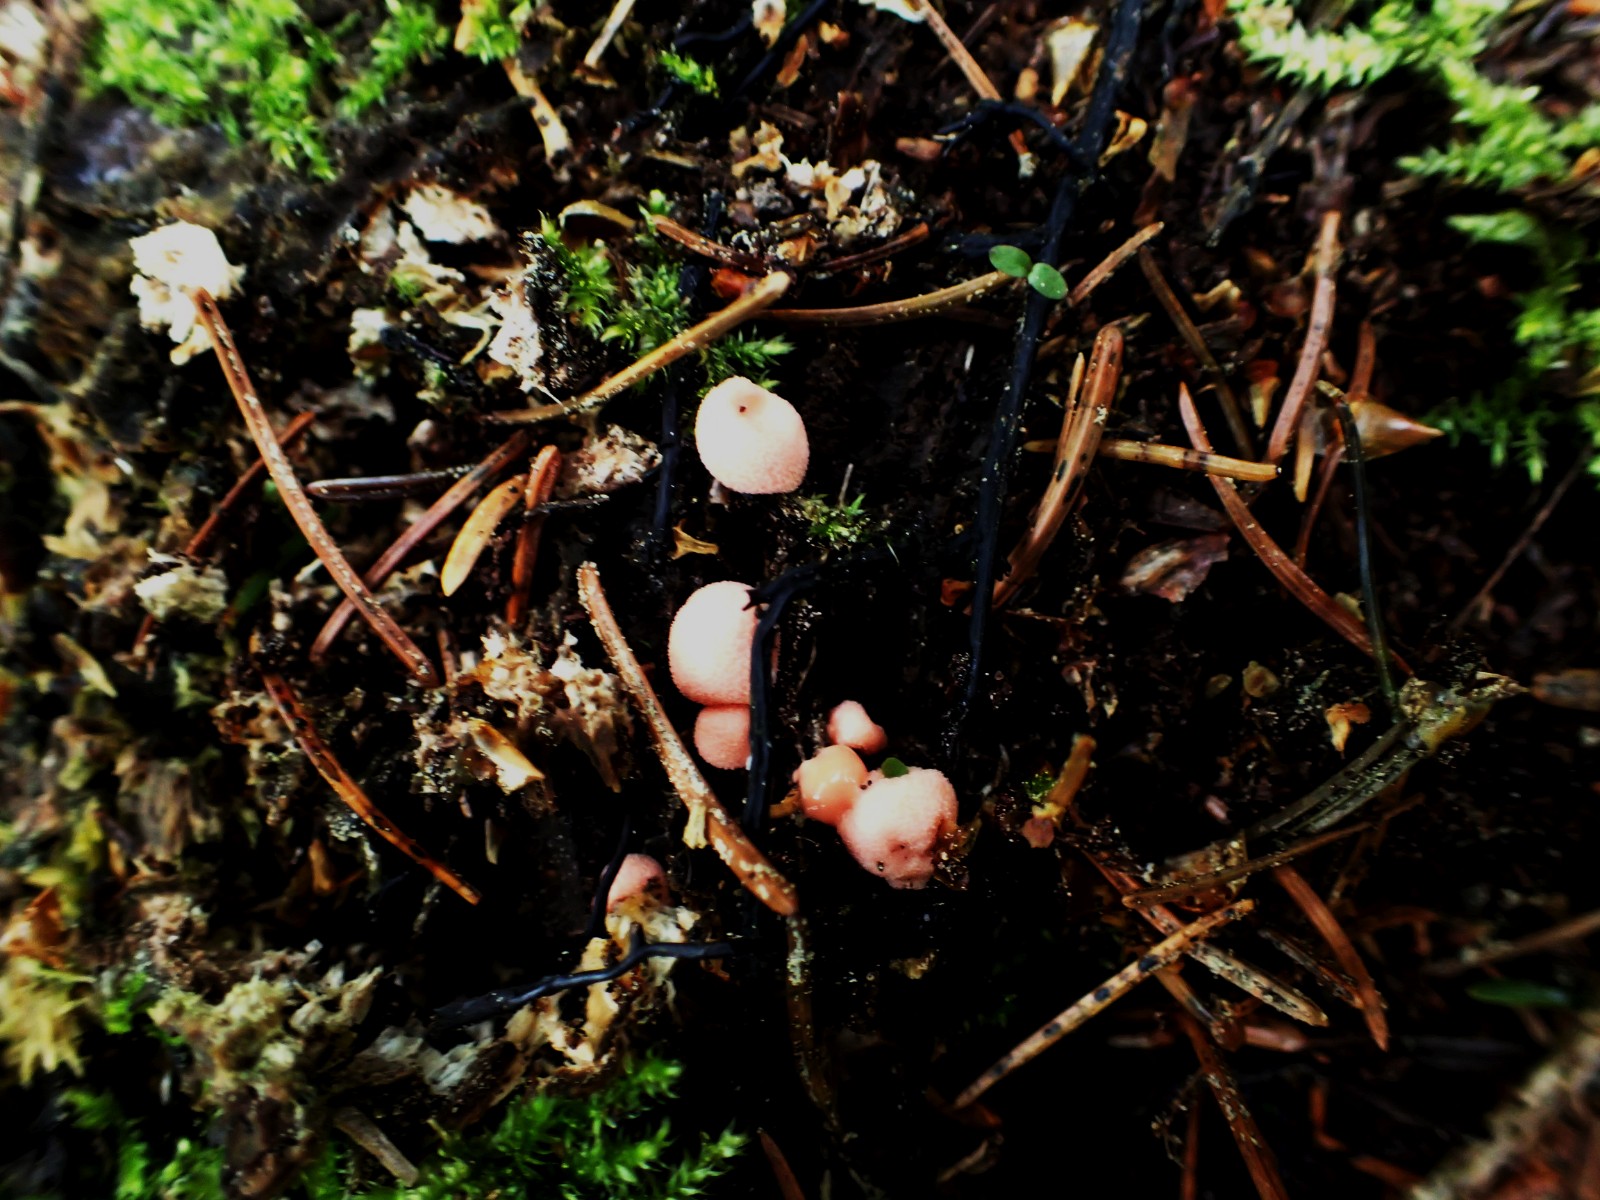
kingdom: Protozoa
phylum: Mycetozoa
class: Myxomycetes
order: Cribrariales
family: Tubiferaceae
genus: Lycogala
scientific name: Lycogala epidendrum
